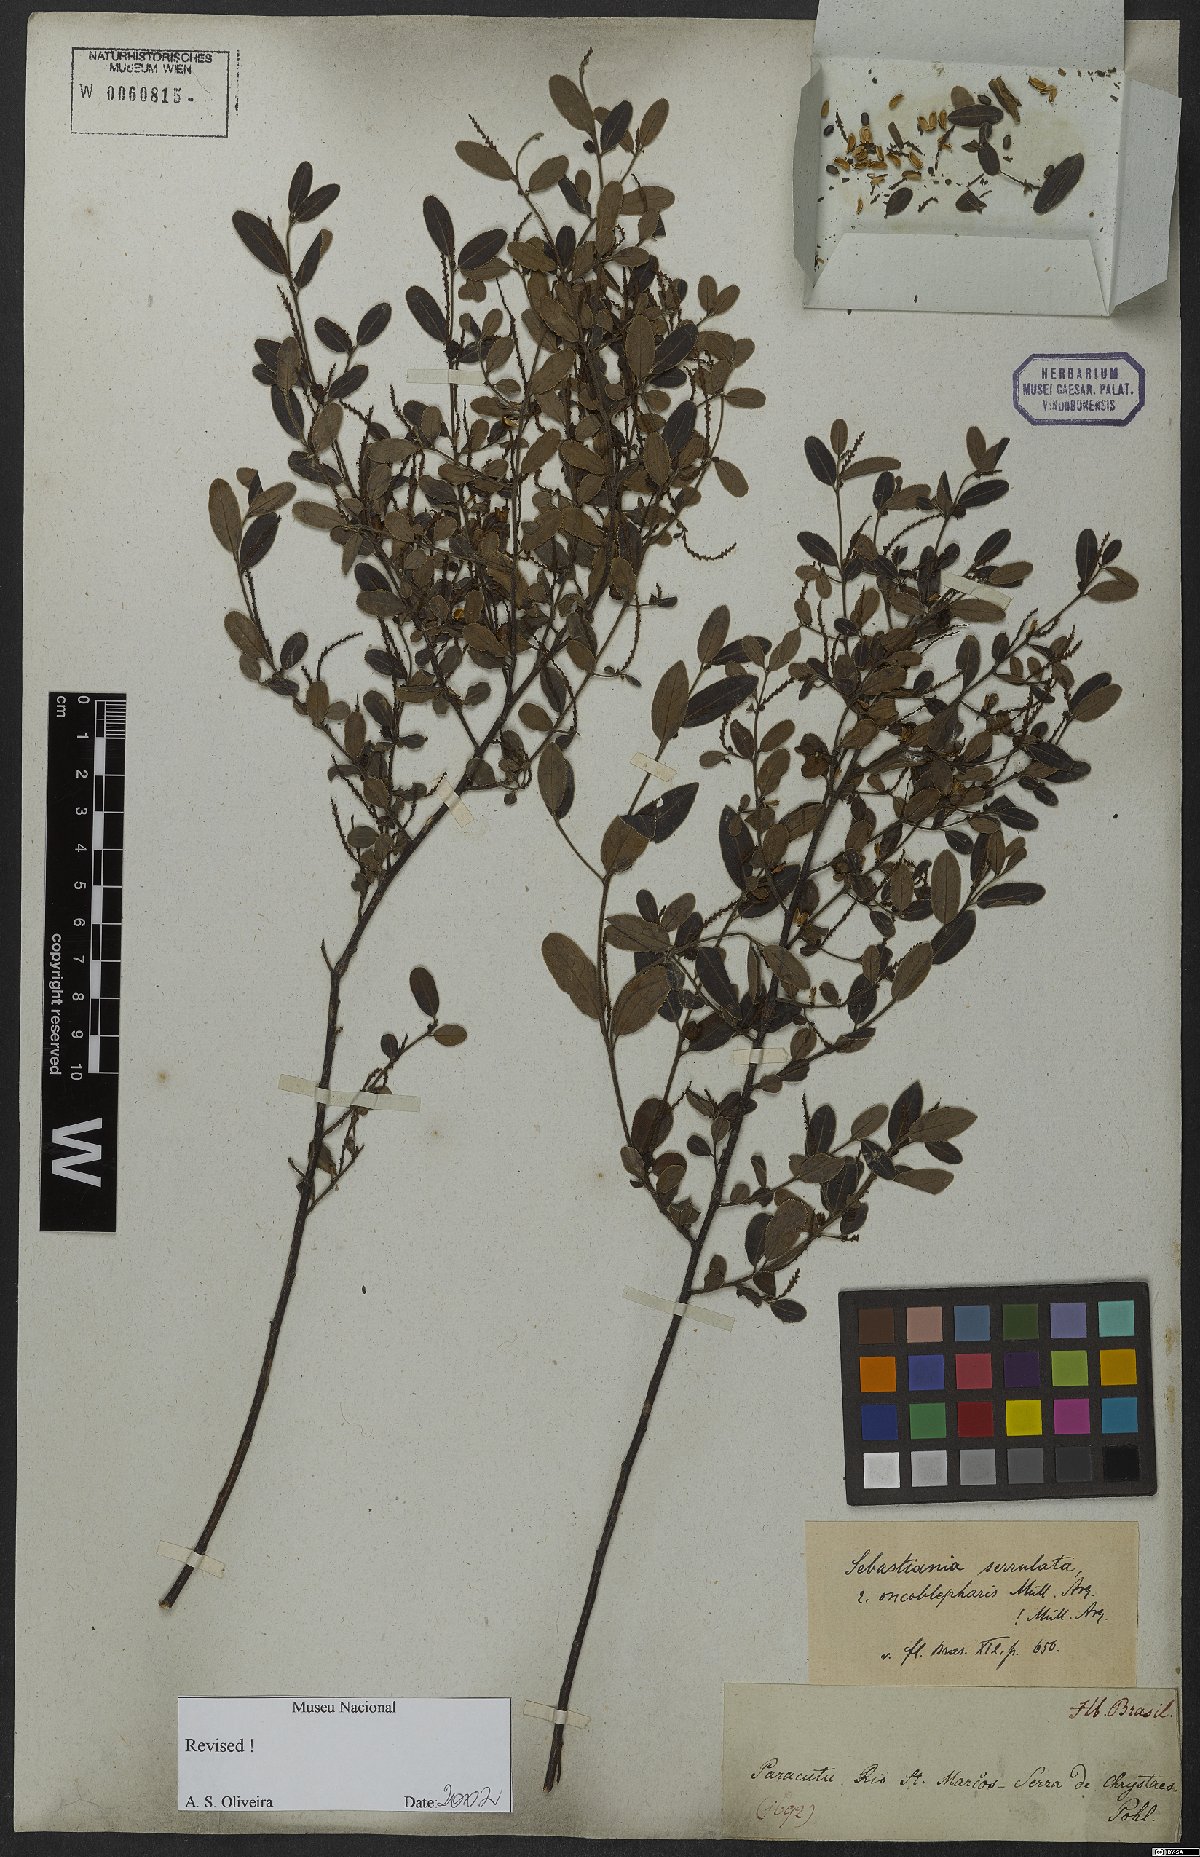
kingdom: Plantae
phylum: Tracheophyta
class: Magnoliopsida
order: Malpighiales
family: Euphorbiaceae
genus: Microstachys
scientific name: Microstachys serrulata
